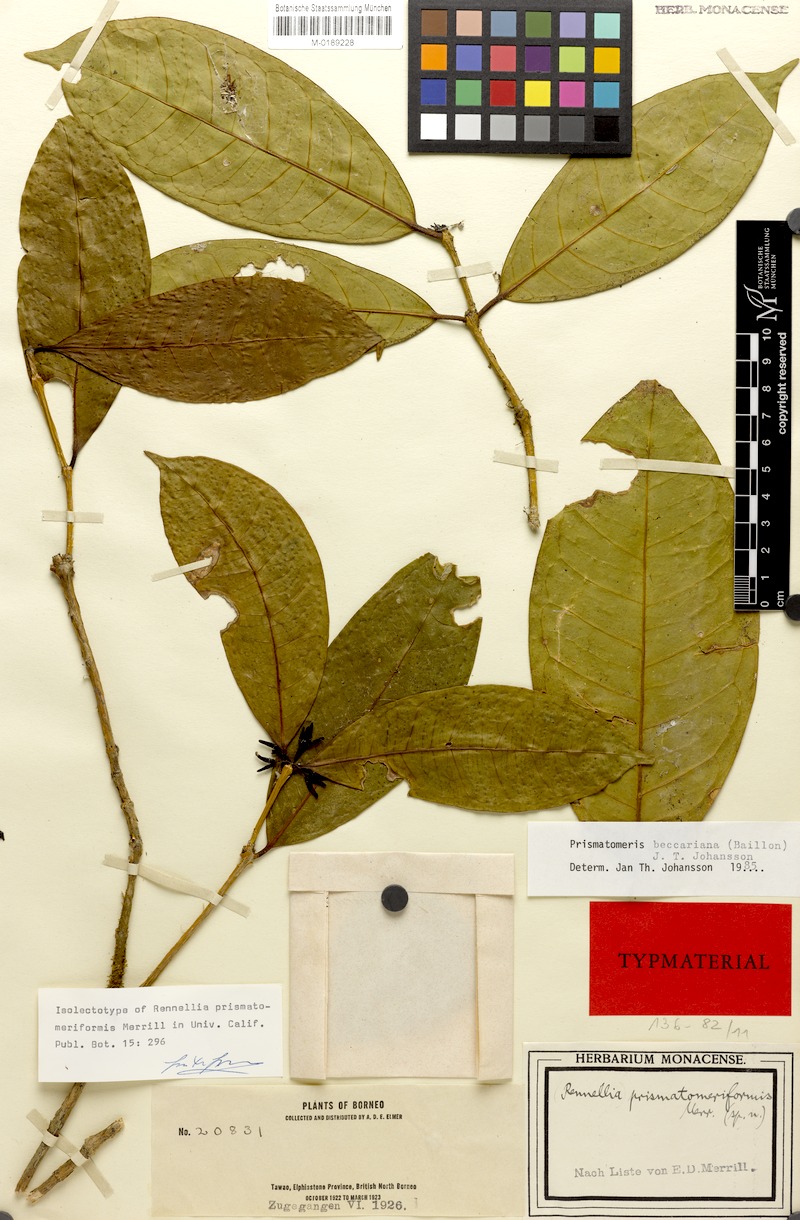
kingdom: Plantae
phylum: Tracheophyta
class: Magnoliopsida
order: Gentianales
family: Rubiaceae
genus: Prismatomeris
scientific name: Prismatomeris beccariana
